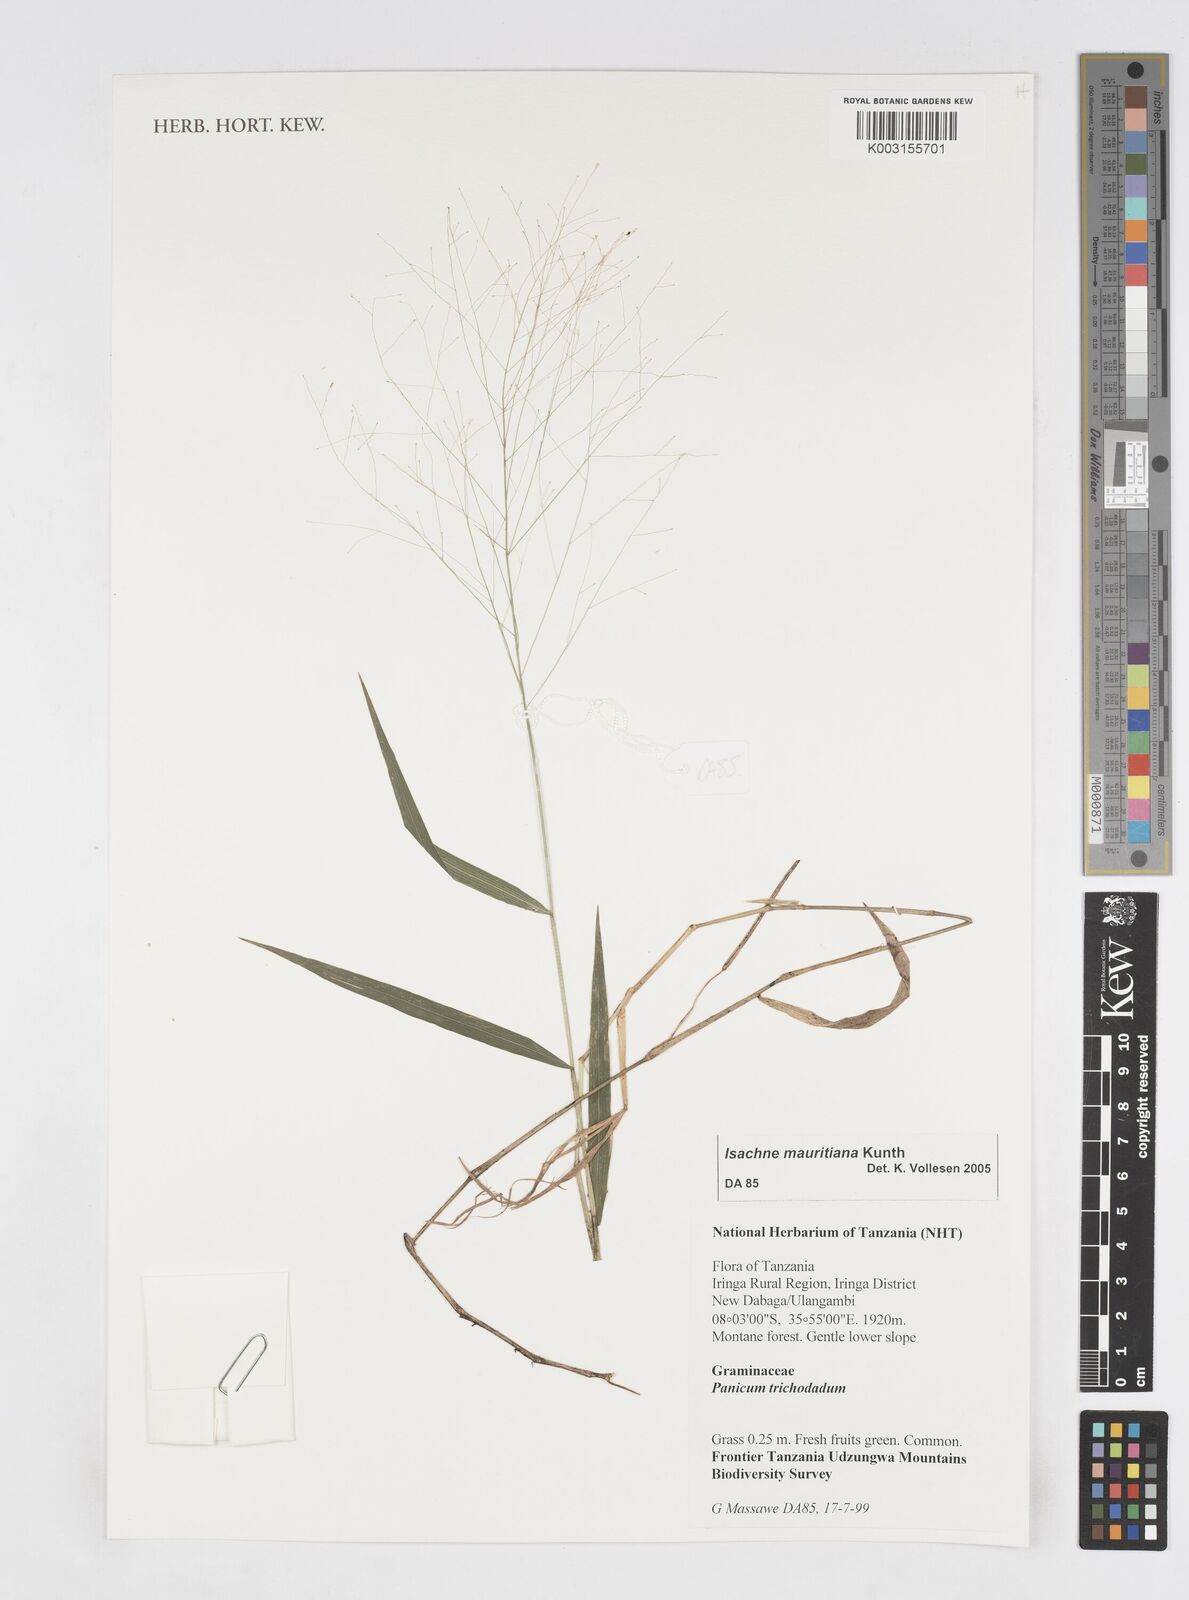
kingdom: Plantae
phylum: Tracheophyta
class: Liliopsida
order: Poales
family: Poaceae
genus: Isachne
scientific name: Isachne mauritiana
